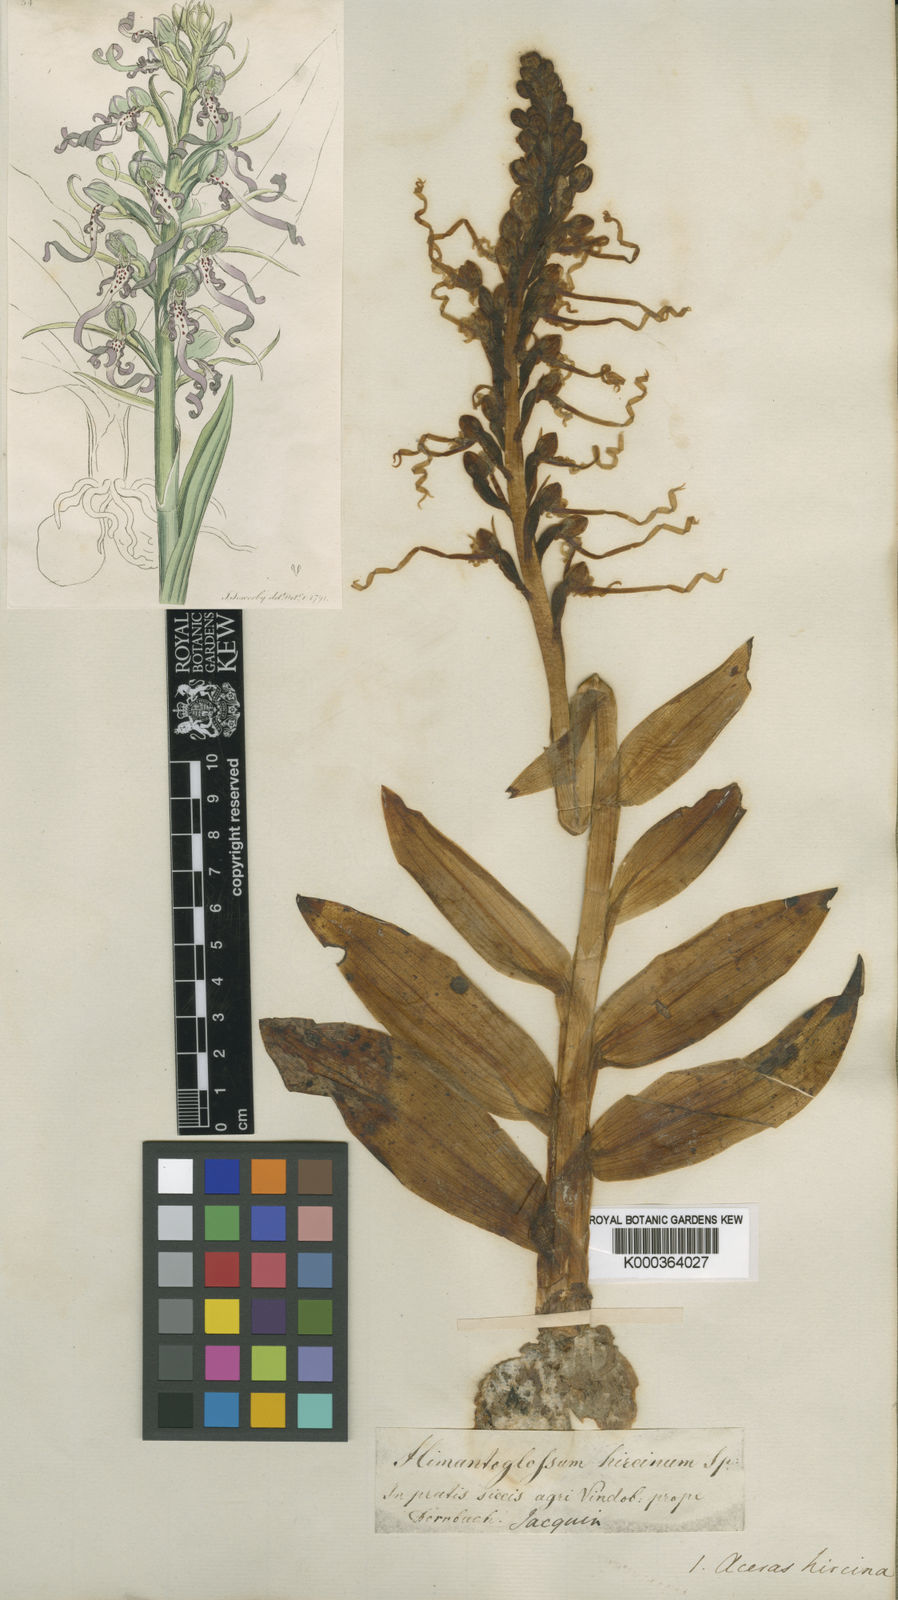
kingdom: Plantae
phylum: Tracheophyta
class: Liliopsida
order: Asparagales
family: Orchidaceae
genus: Himantoglossum
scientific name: Himantoglossum hircinum
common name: Lizard orchid
